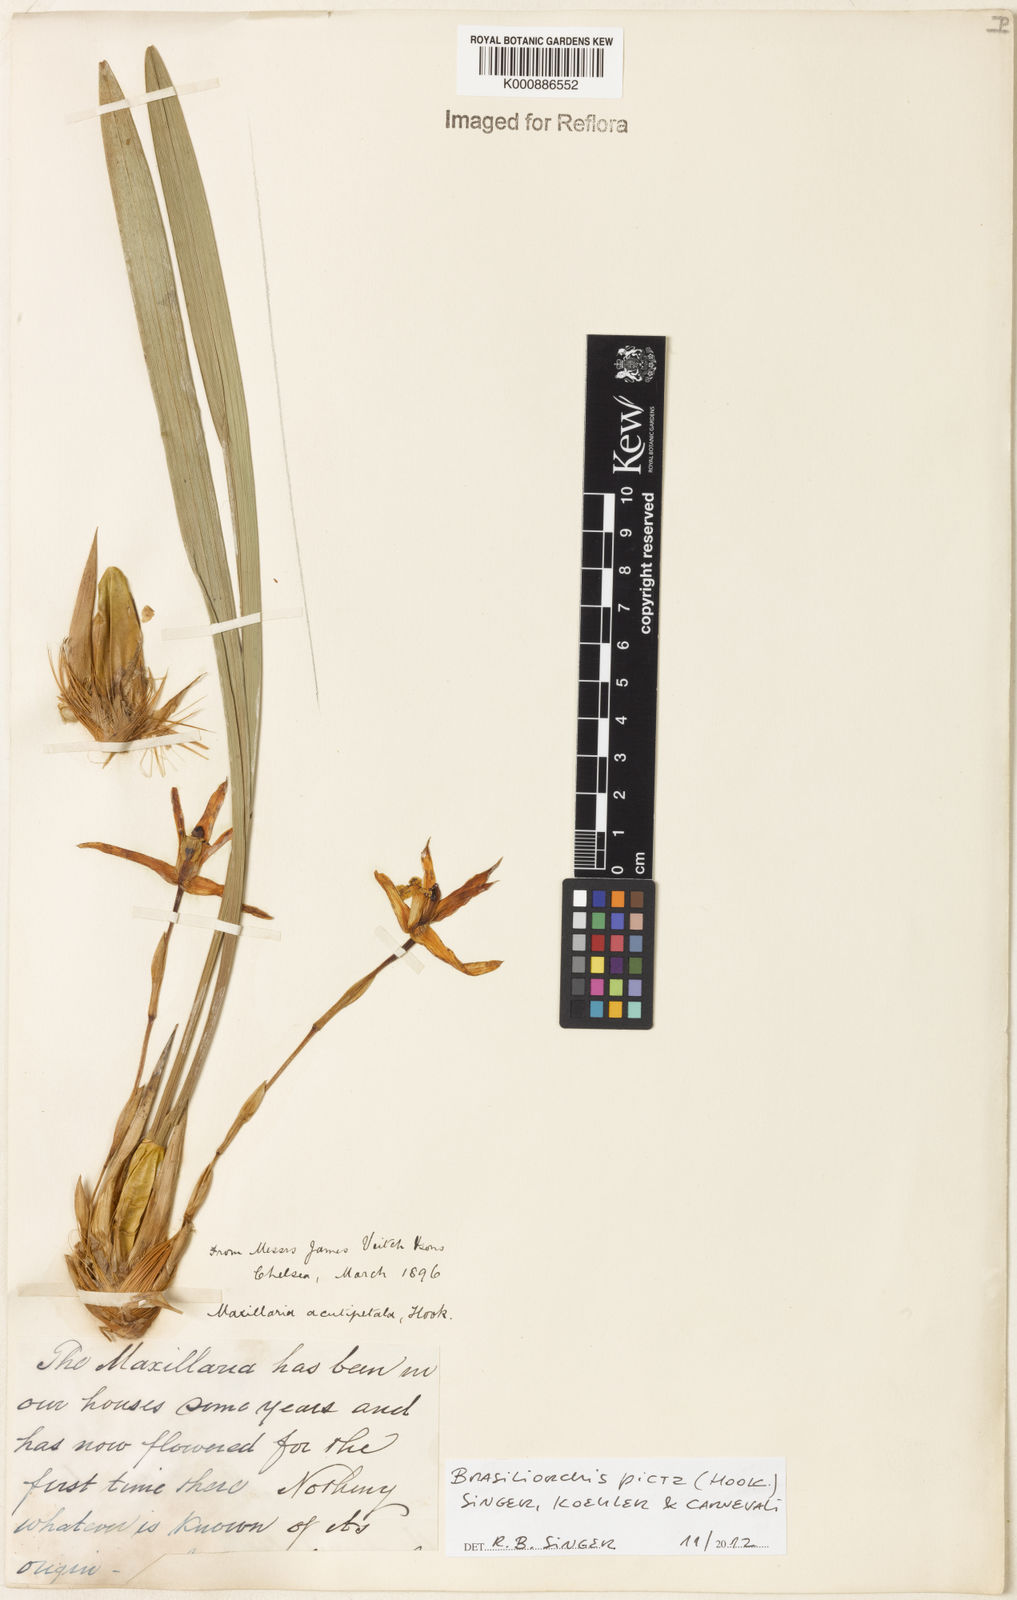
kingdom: Plantae
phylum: Tracheophyta
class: Liliopsida
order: Asparagales
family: Orchidaceae
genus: Maxillaria
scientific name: Maxillaria picta
